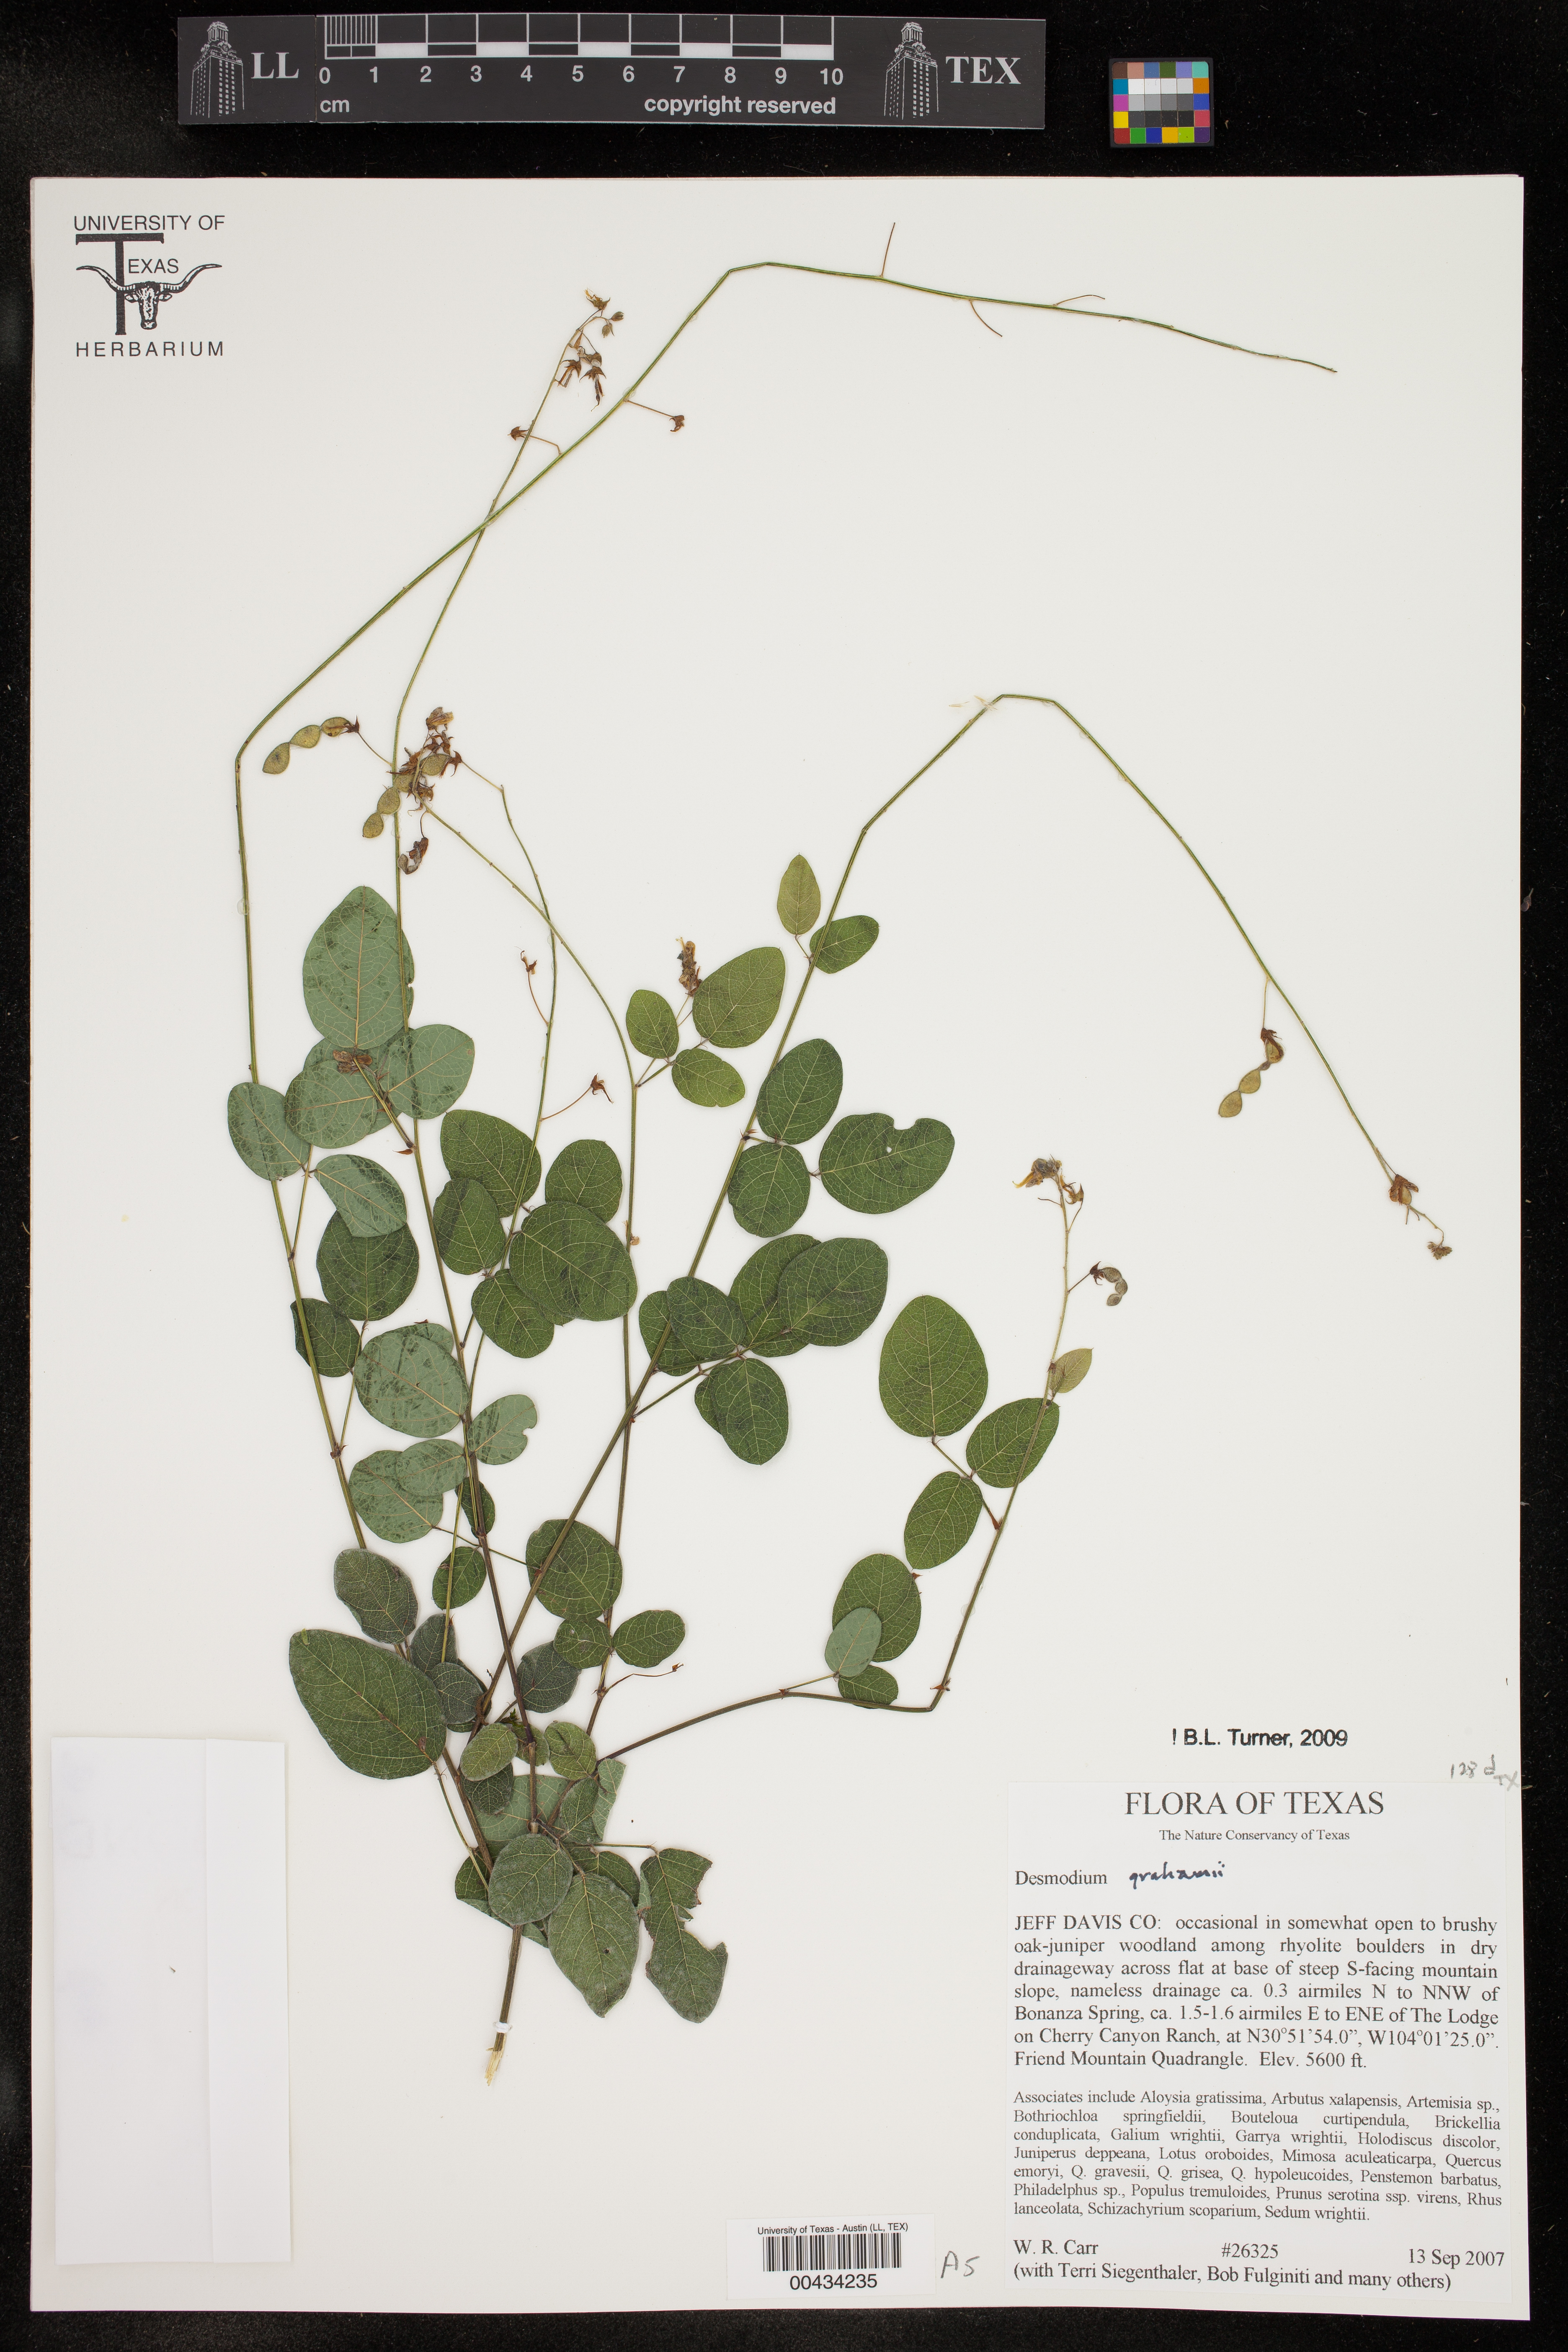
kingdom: Plantae
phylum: Tracheophyta
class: Magnoliopsida
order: Fabales
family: Fabaceae
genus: Desmodium
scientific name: Desmodium grahamii
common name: Graham's tick-trefoil
